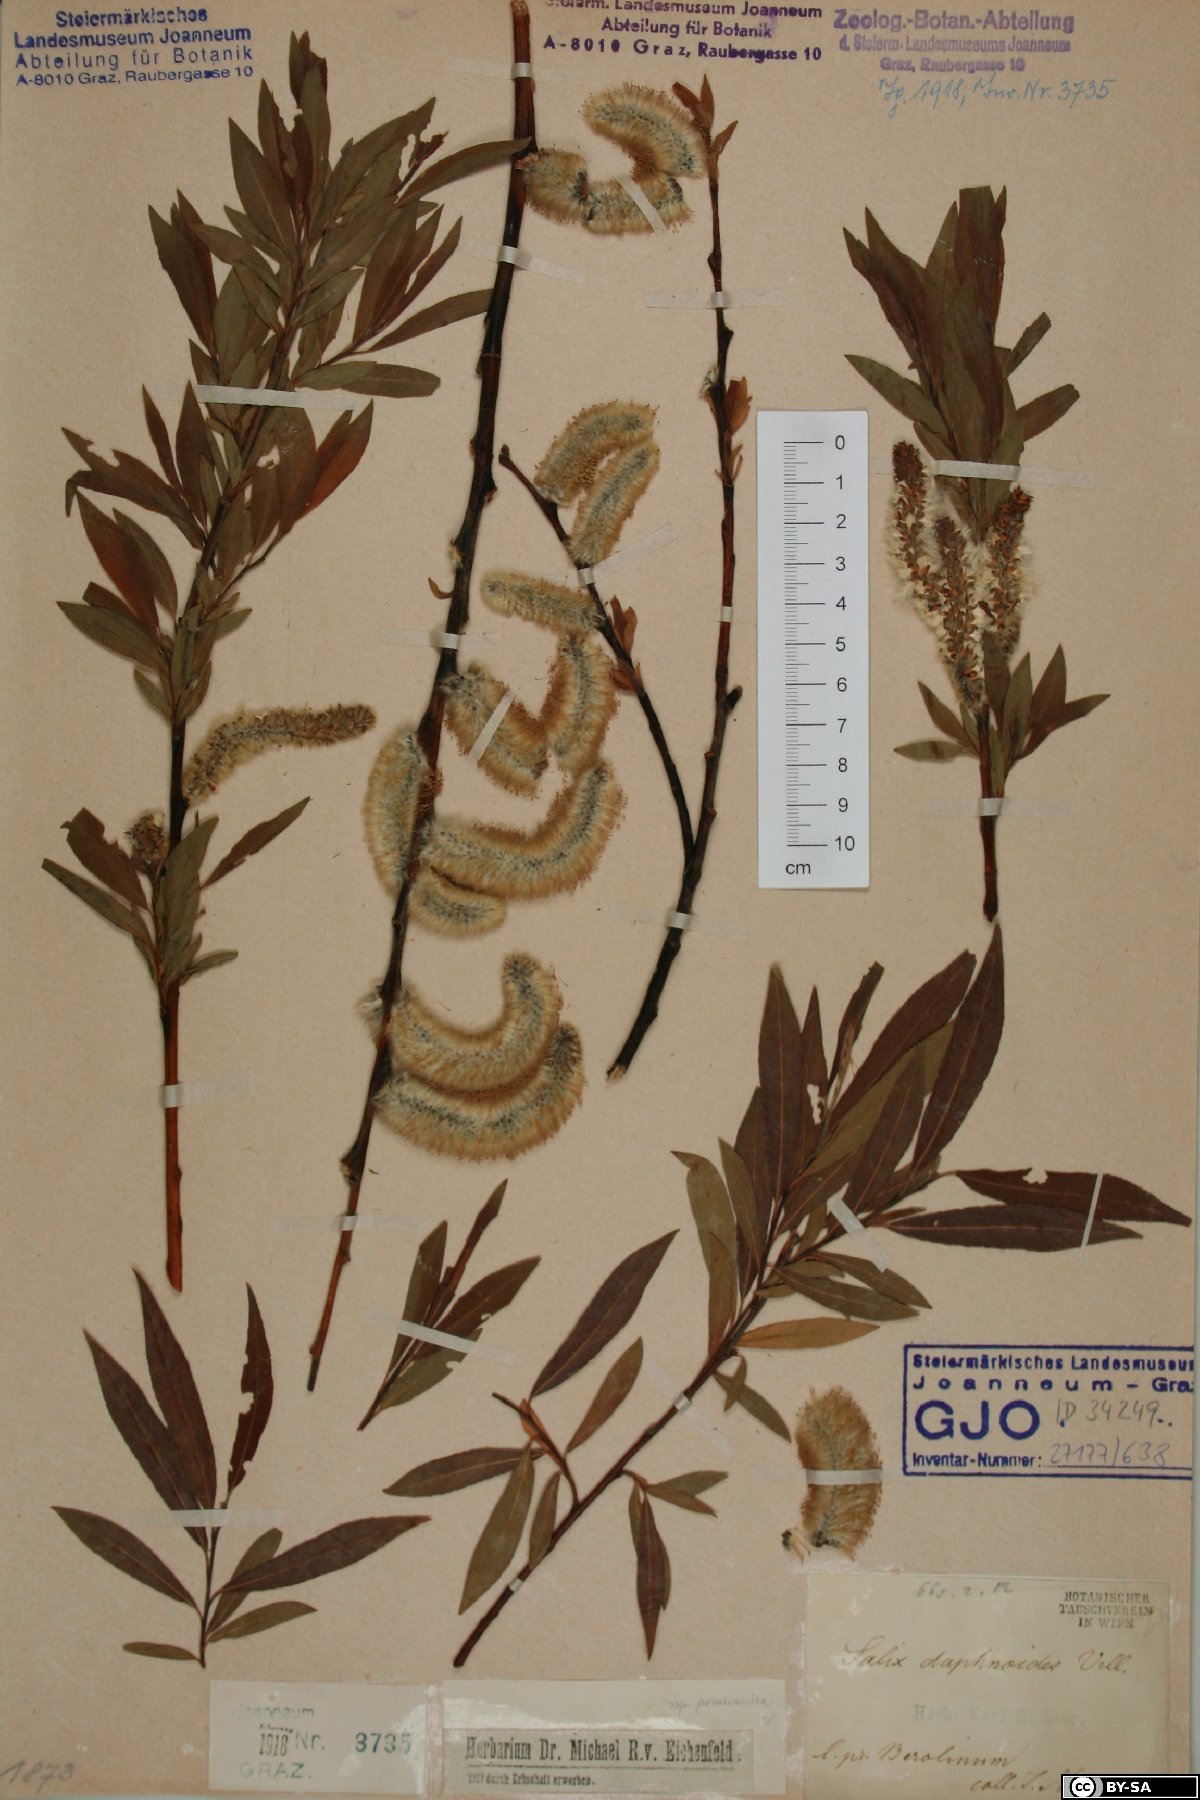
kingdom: Plantae
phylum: Tracheophyta
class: Magnoliopsida
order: Malpighiales
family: Salicaceae
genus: Salix
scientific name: Salix daphnoides
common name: European violet-willow
